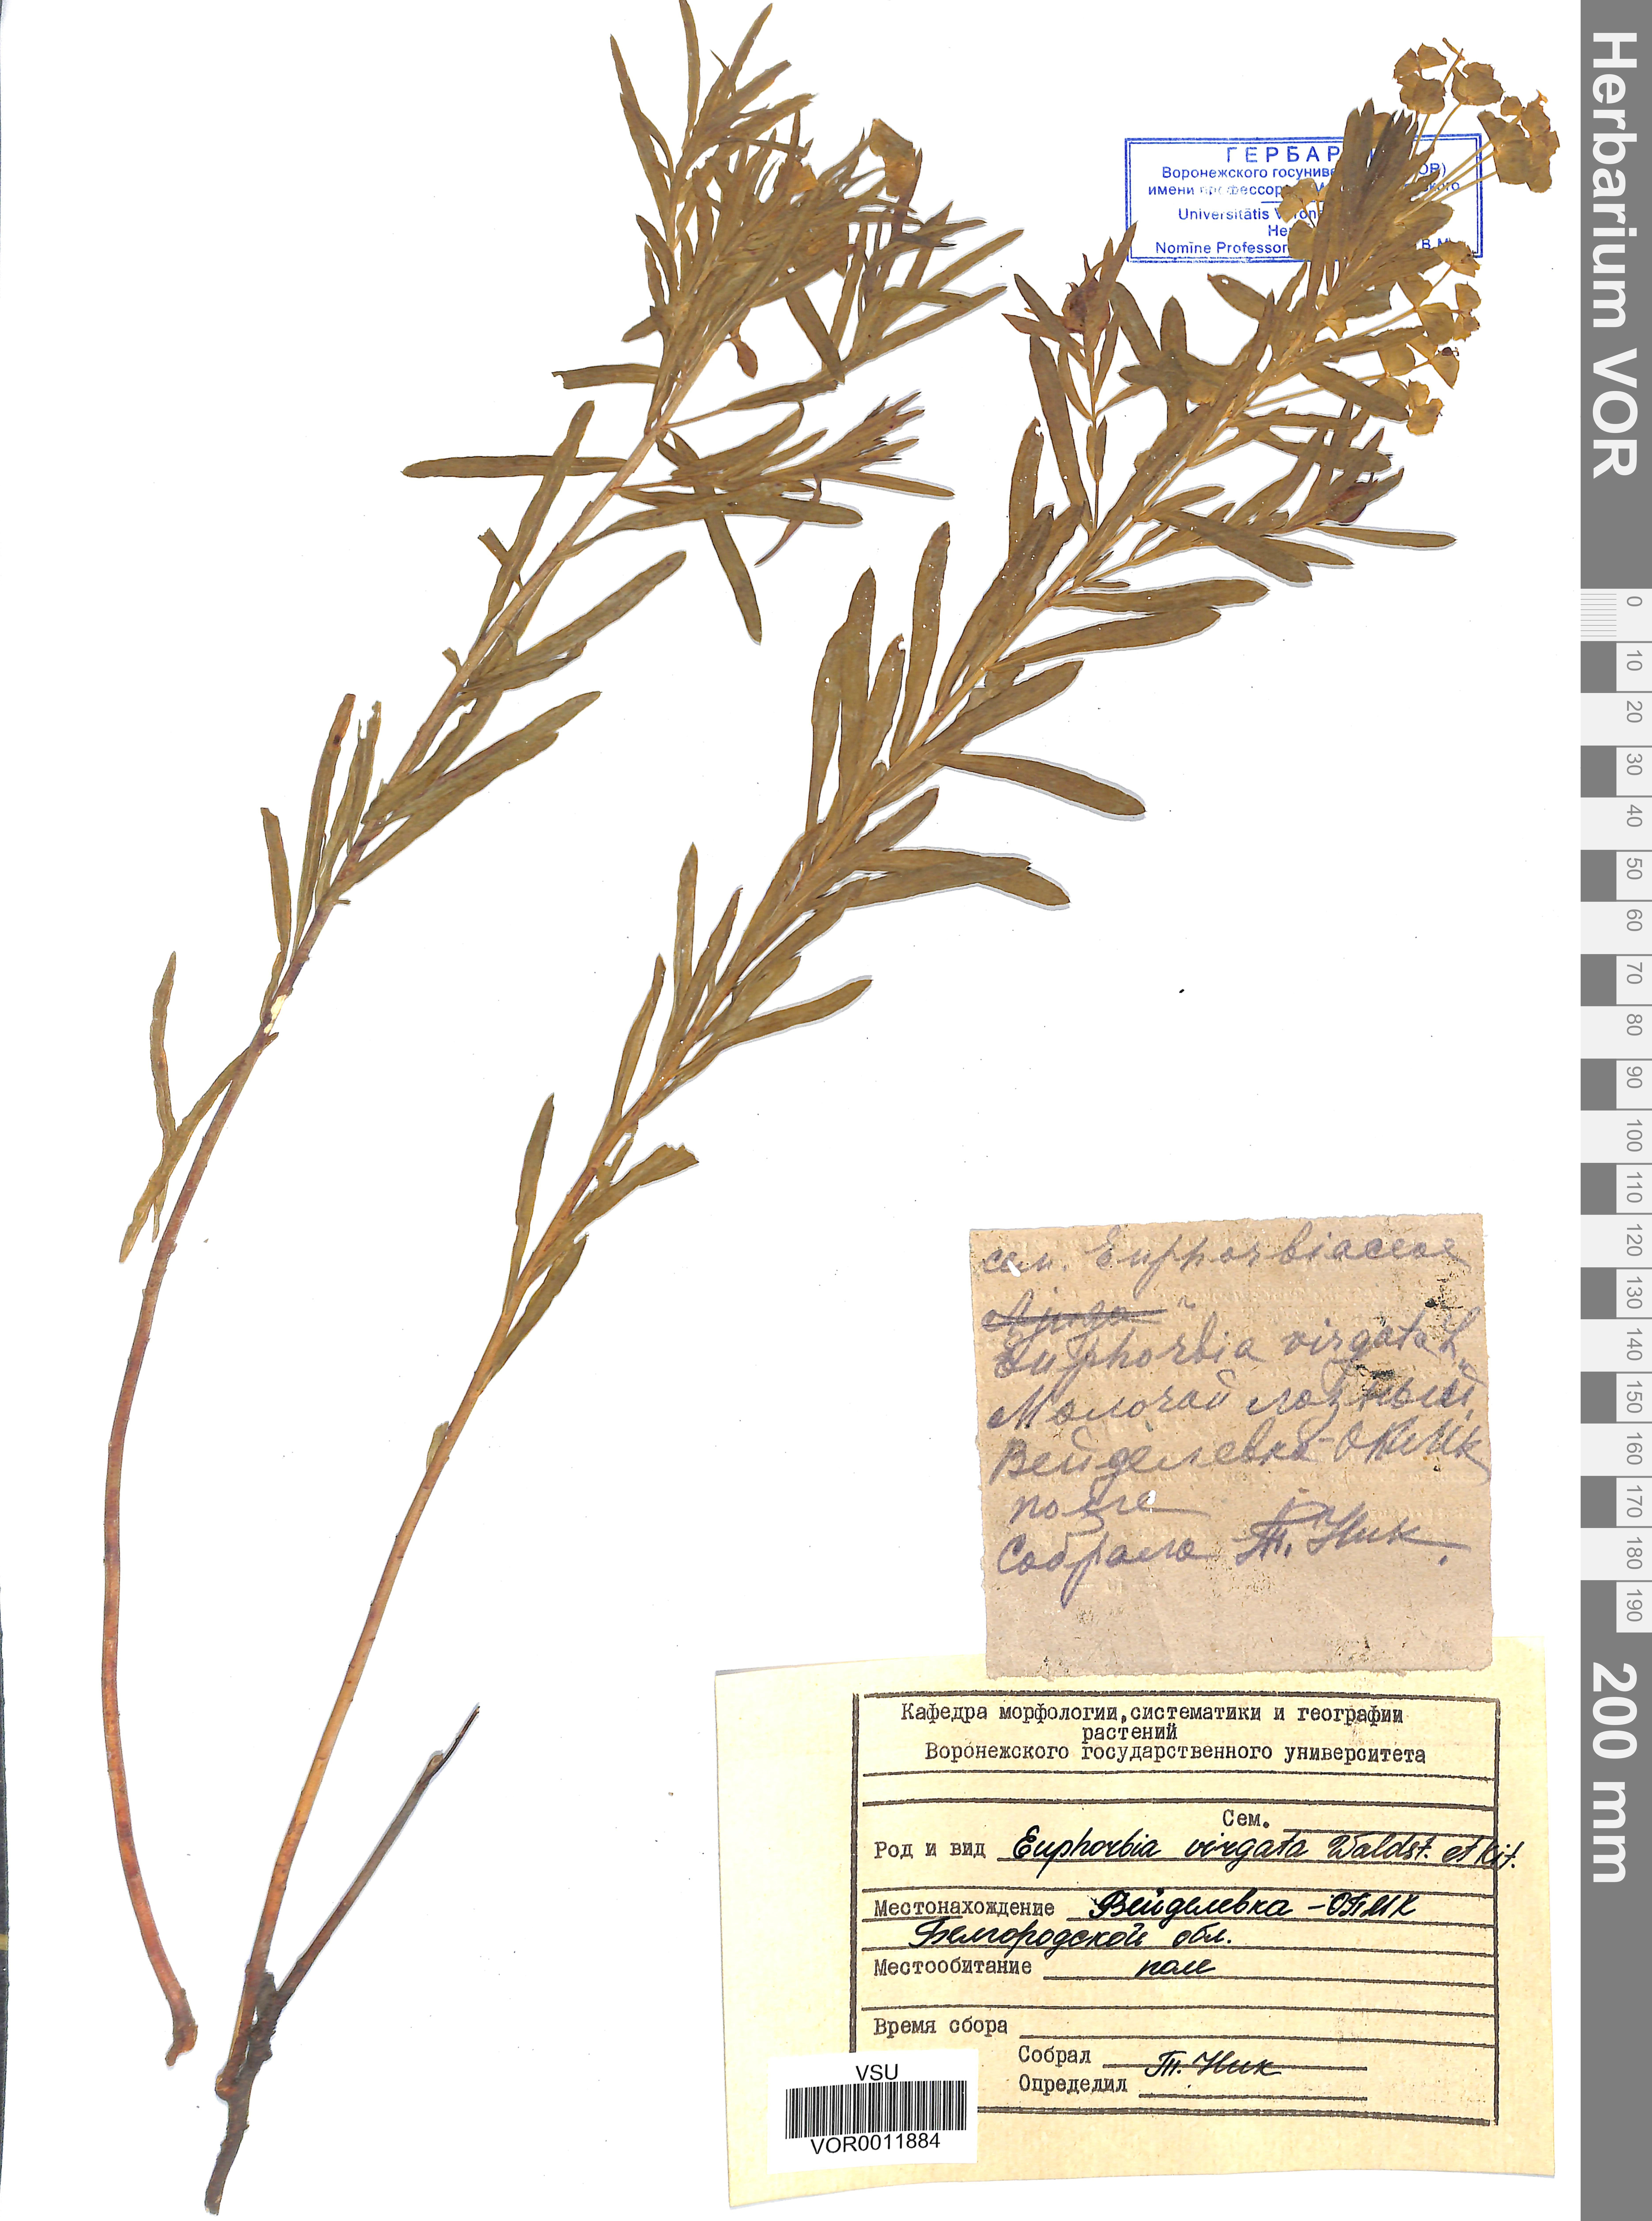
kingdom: Plantae
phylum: Tracheophyta
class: Magnoliopsida
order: Malpighiales
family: Euphorbiaceae
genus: Euphorbia
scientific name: Euphorbia virgata
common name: Leafy spurge
